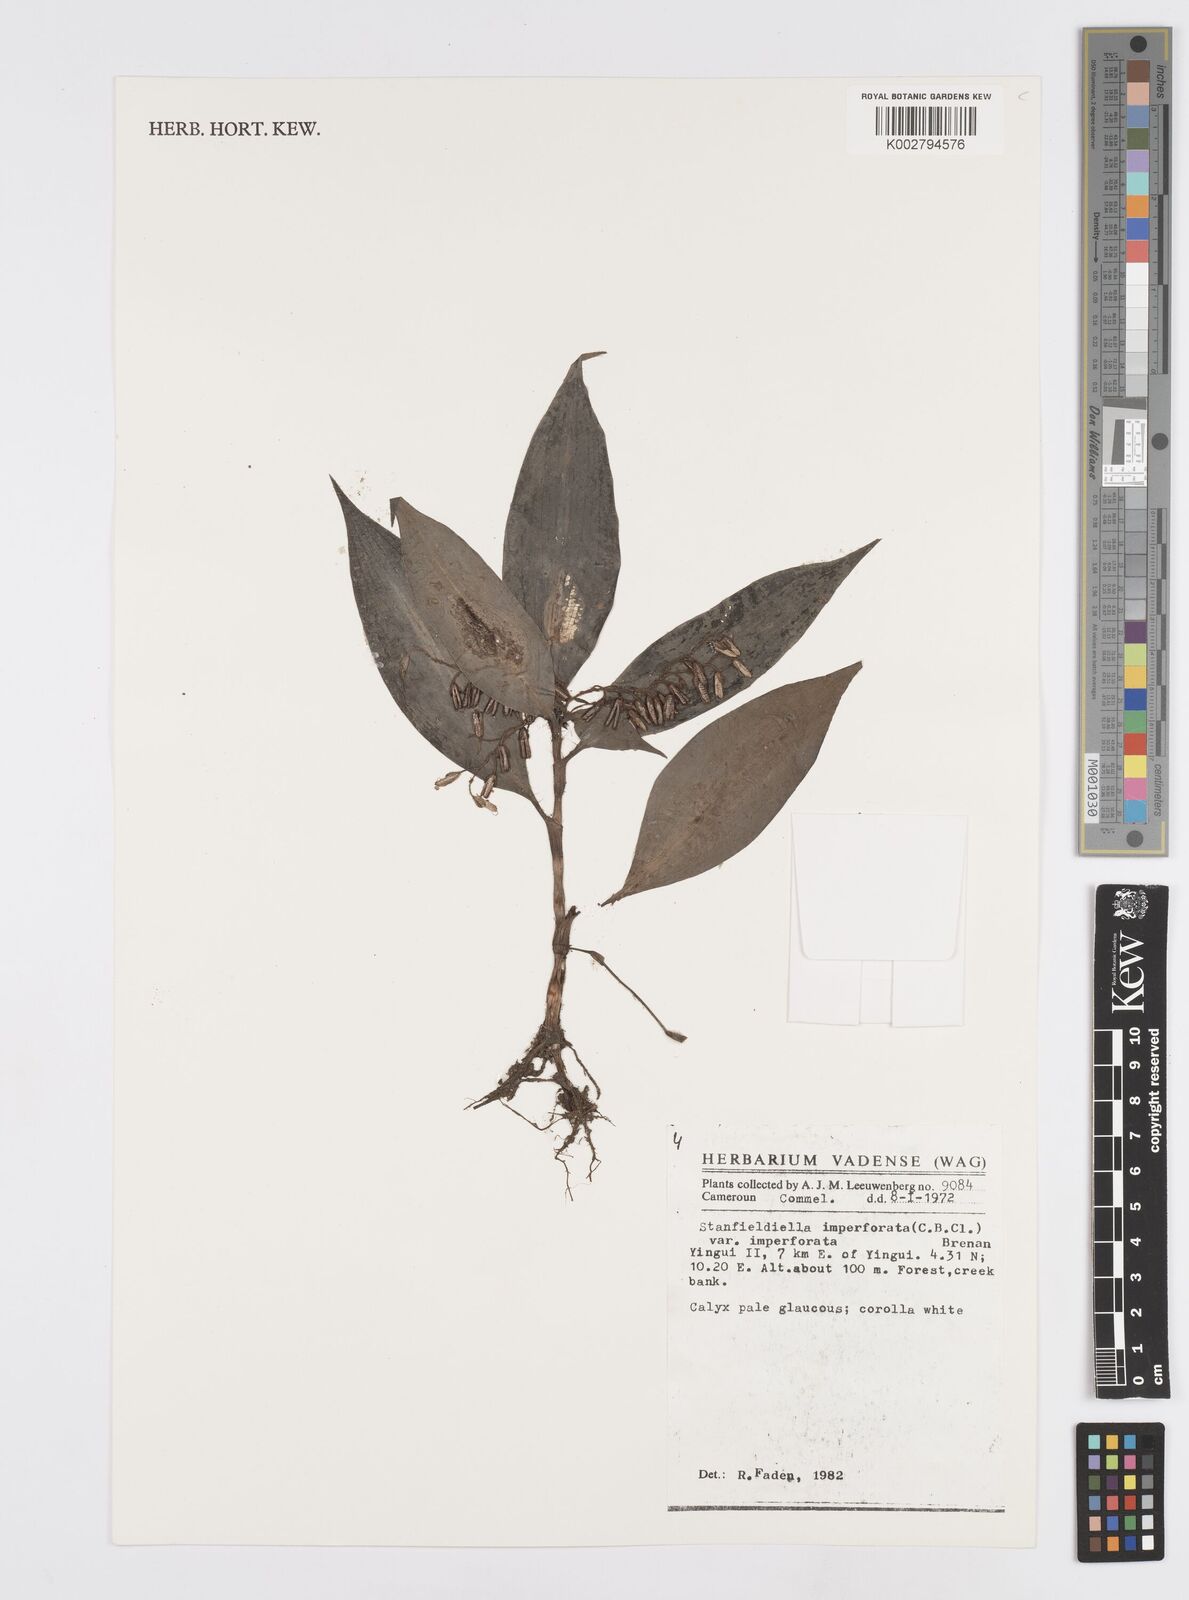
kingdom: Plantae
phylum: Tracheophyta
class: Liliopsida
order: Commelinales
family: Commelinaceae
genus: Stanfieldiella
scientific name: Stanfieldiella imperforata
